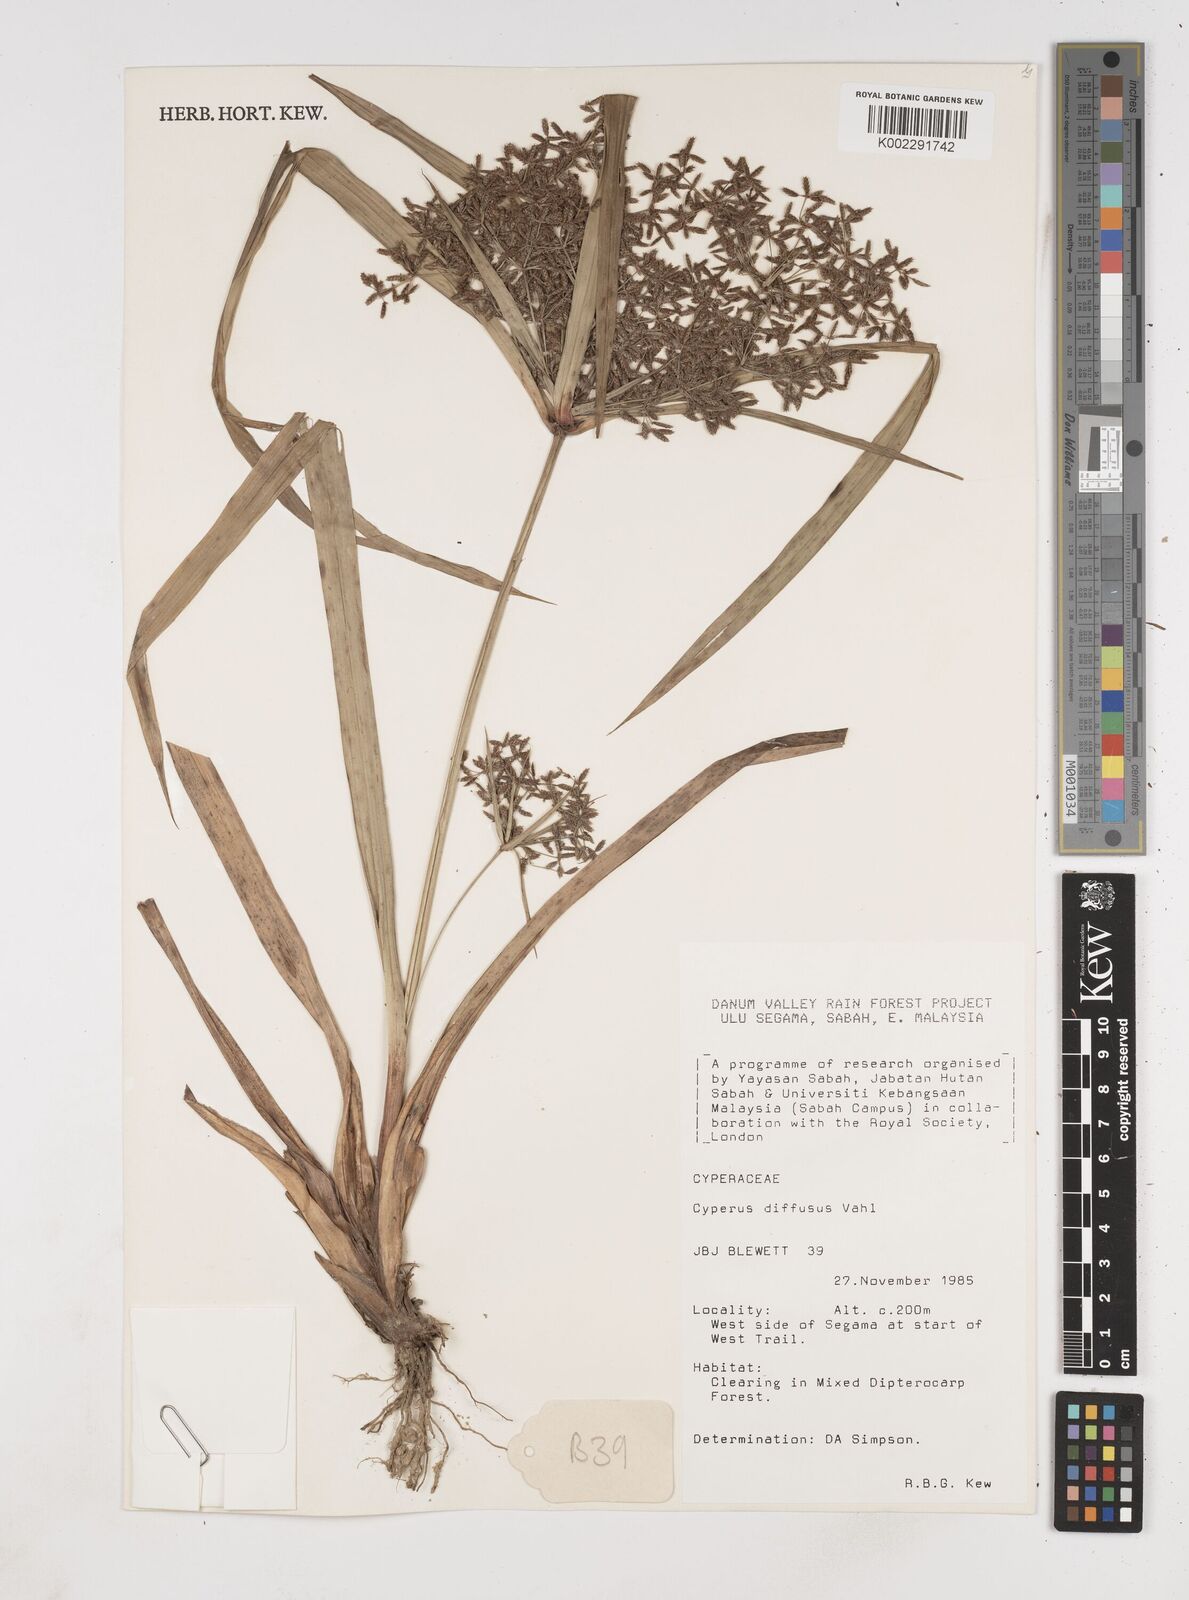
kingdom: Plantae
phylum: Tracheophyta
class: Liliopsida
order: Poales
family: Cyperaceae
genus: Cyperus
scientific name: Cyperus diffusus
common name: Dwarf umbrella grass
